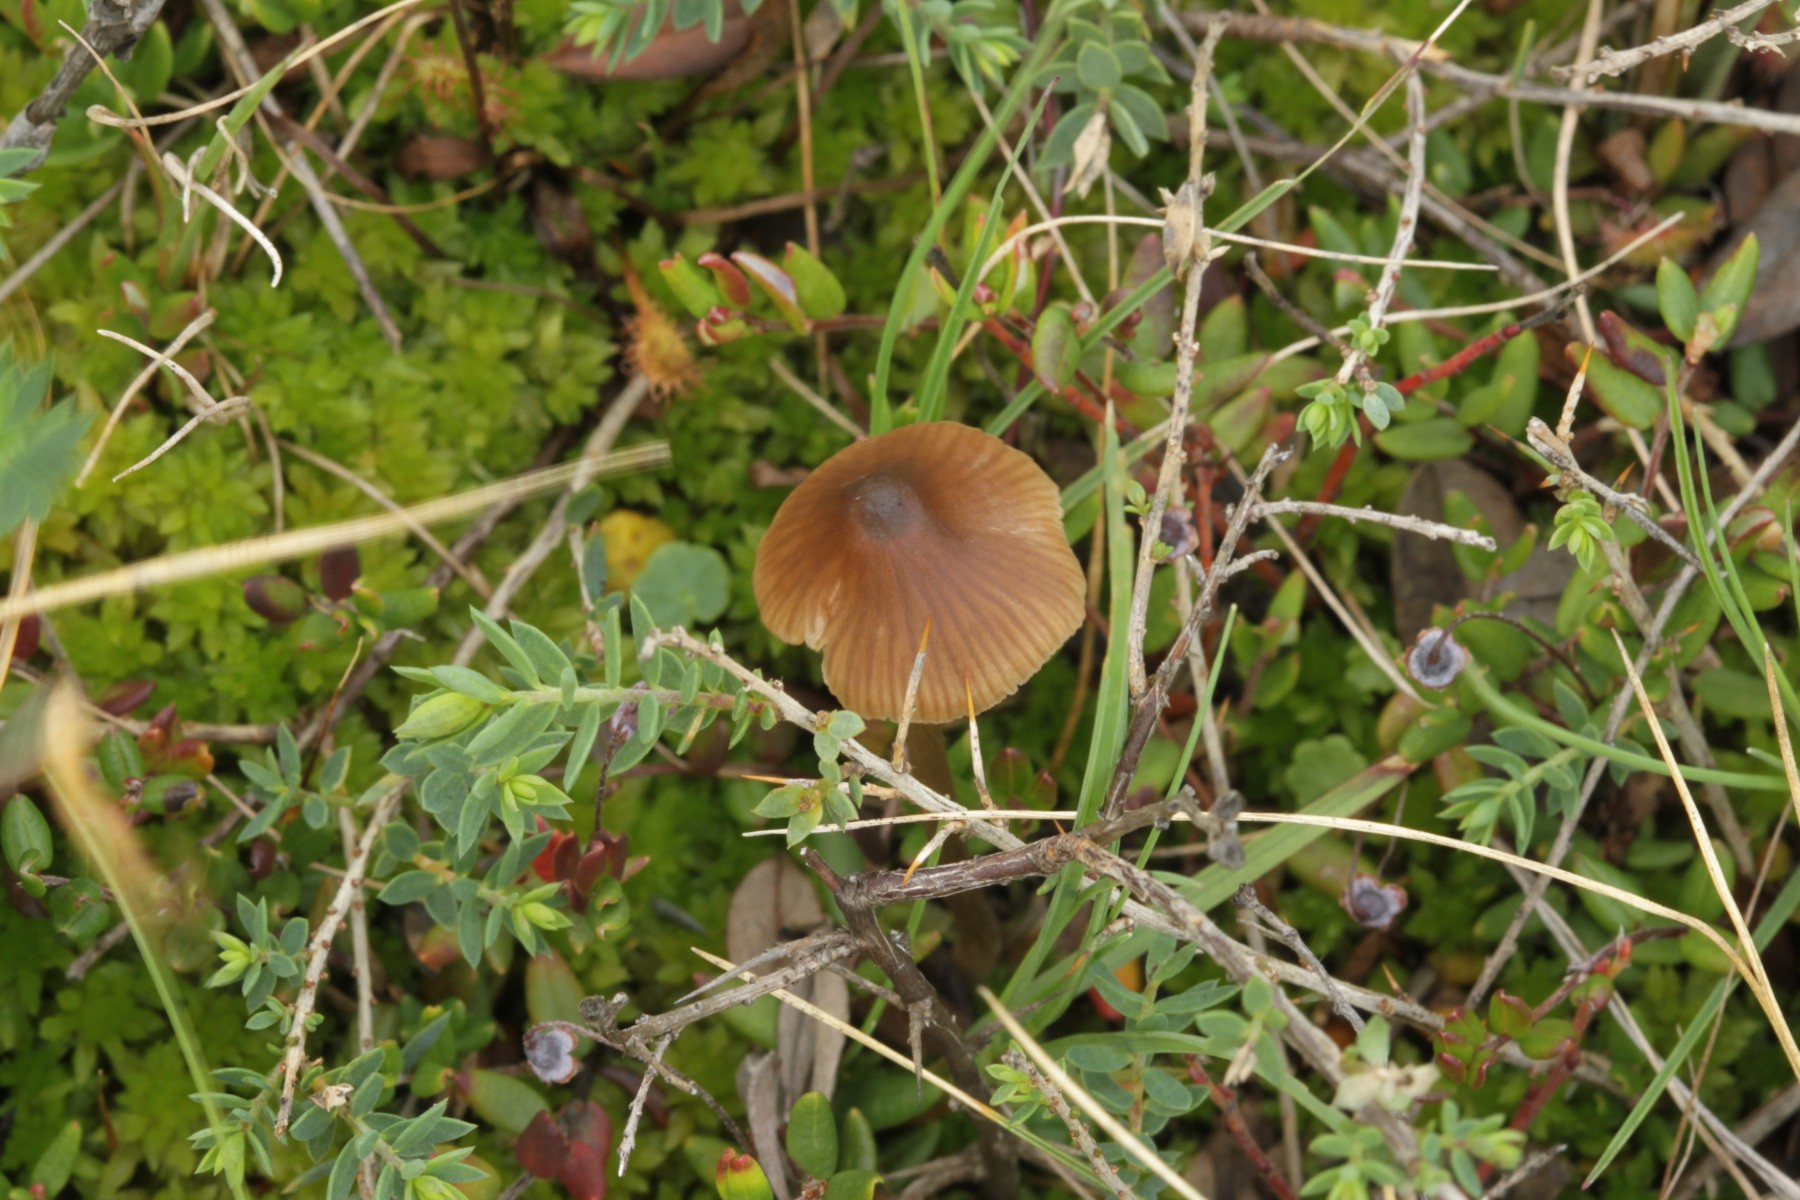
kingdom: Fungi
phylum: Basidiomycota
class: Agaricomycetes
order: Agaricales
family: Entolomataceae
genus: Entoloma
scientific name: Entoloma
